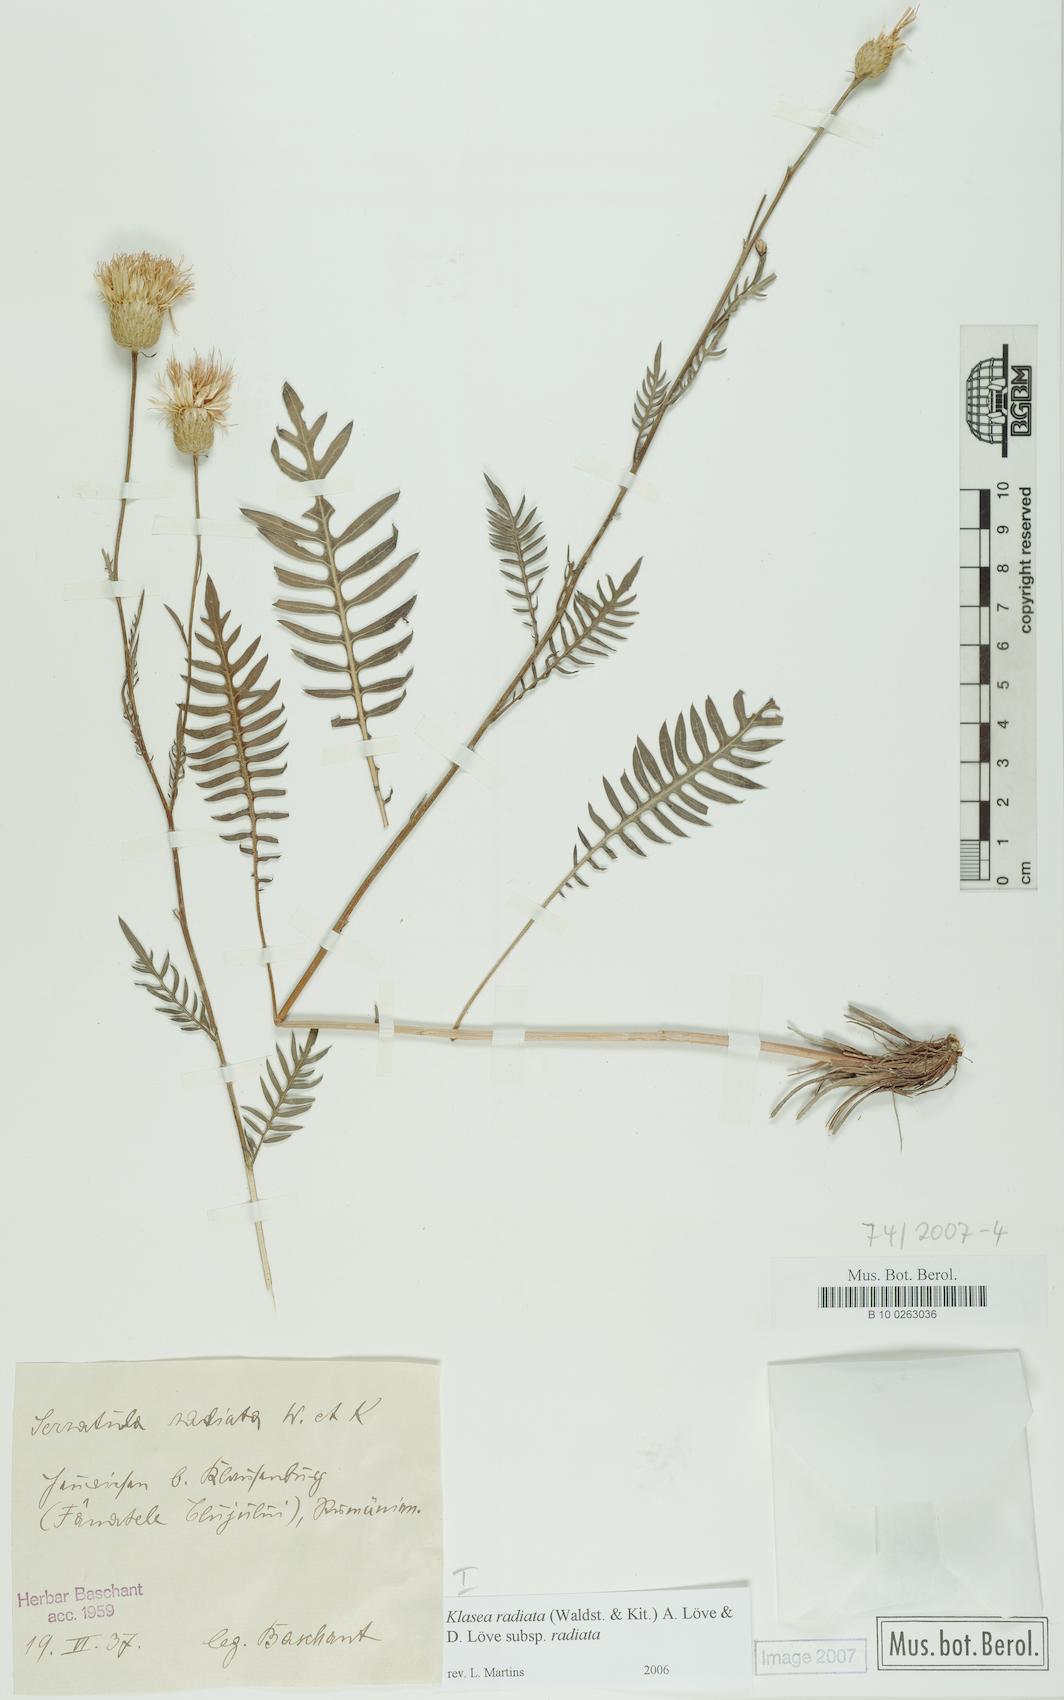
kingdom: Plantae
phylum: Tracheophyta
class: Magnoliopsida
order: Asterales
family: Asteraceae
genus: Klasea
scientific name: Klasea radiata
